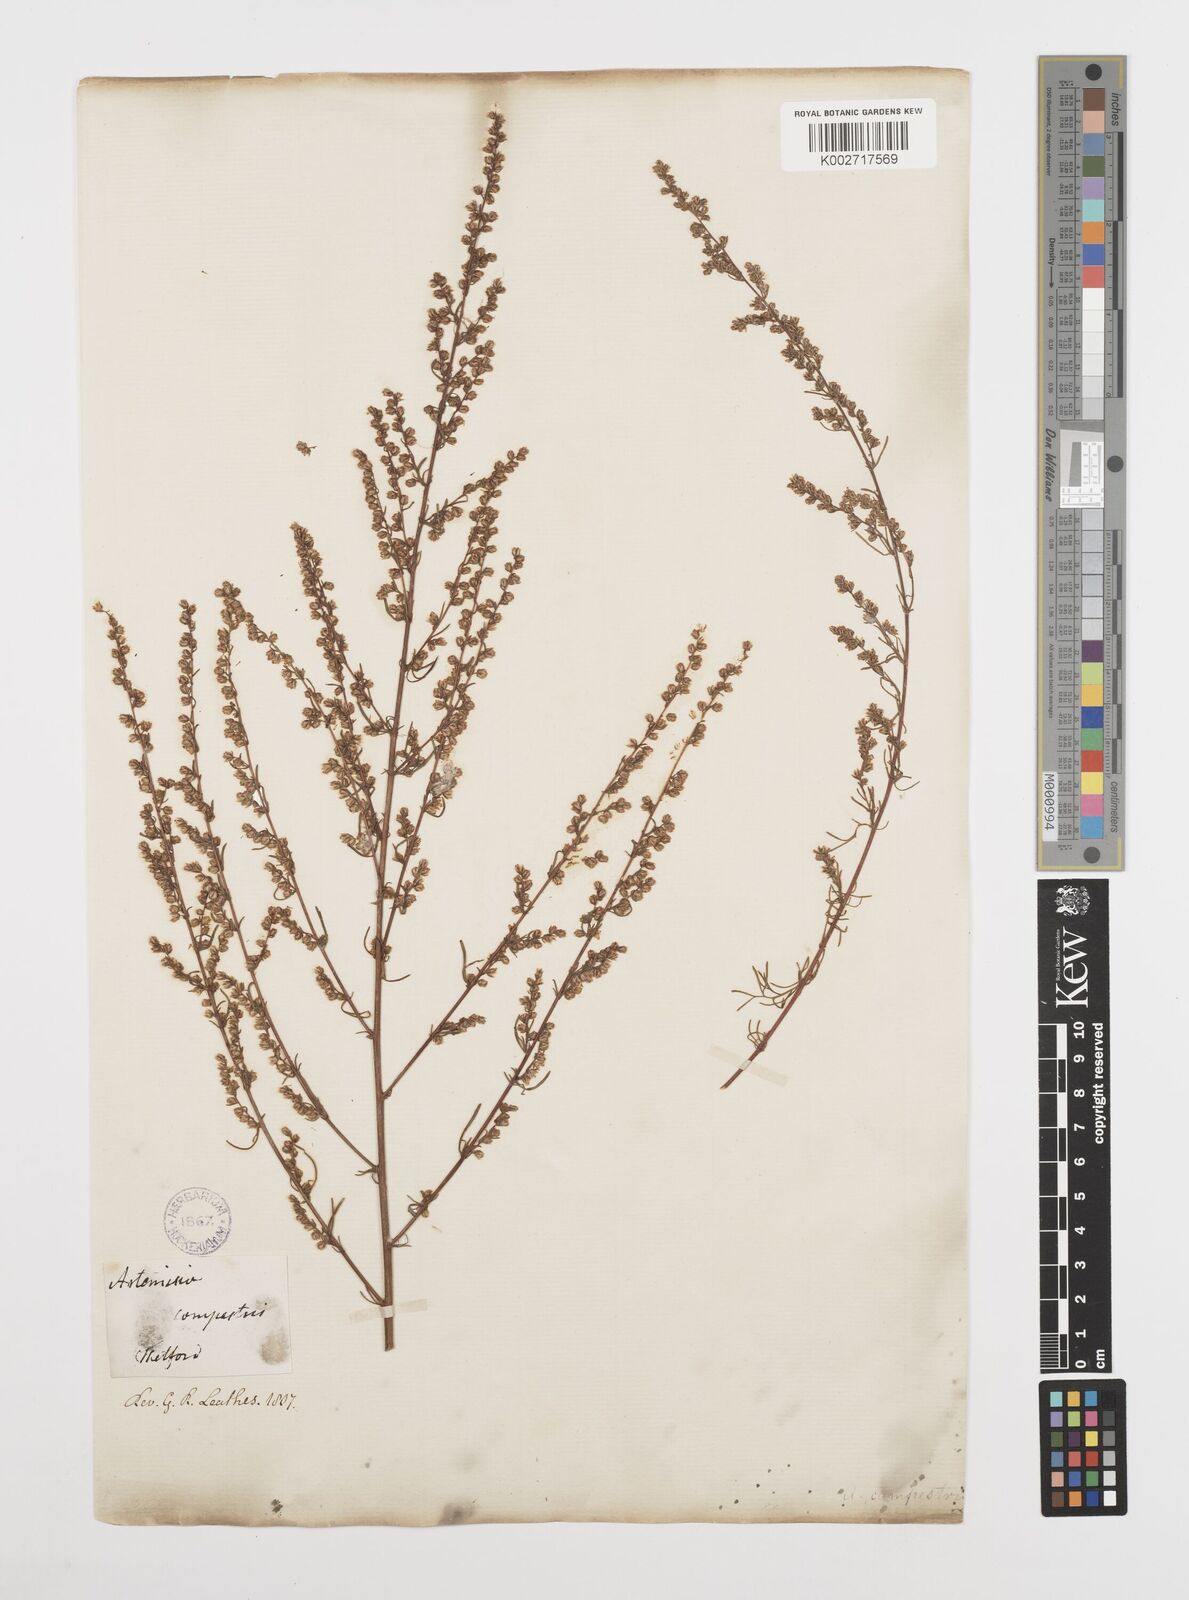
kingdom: Plantae
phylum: Tracheophyta
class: Magnoliopsida
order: Asterales
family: Asteraceae
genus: Artemisia
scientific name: Artemisia campestris
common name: Field wormwood
